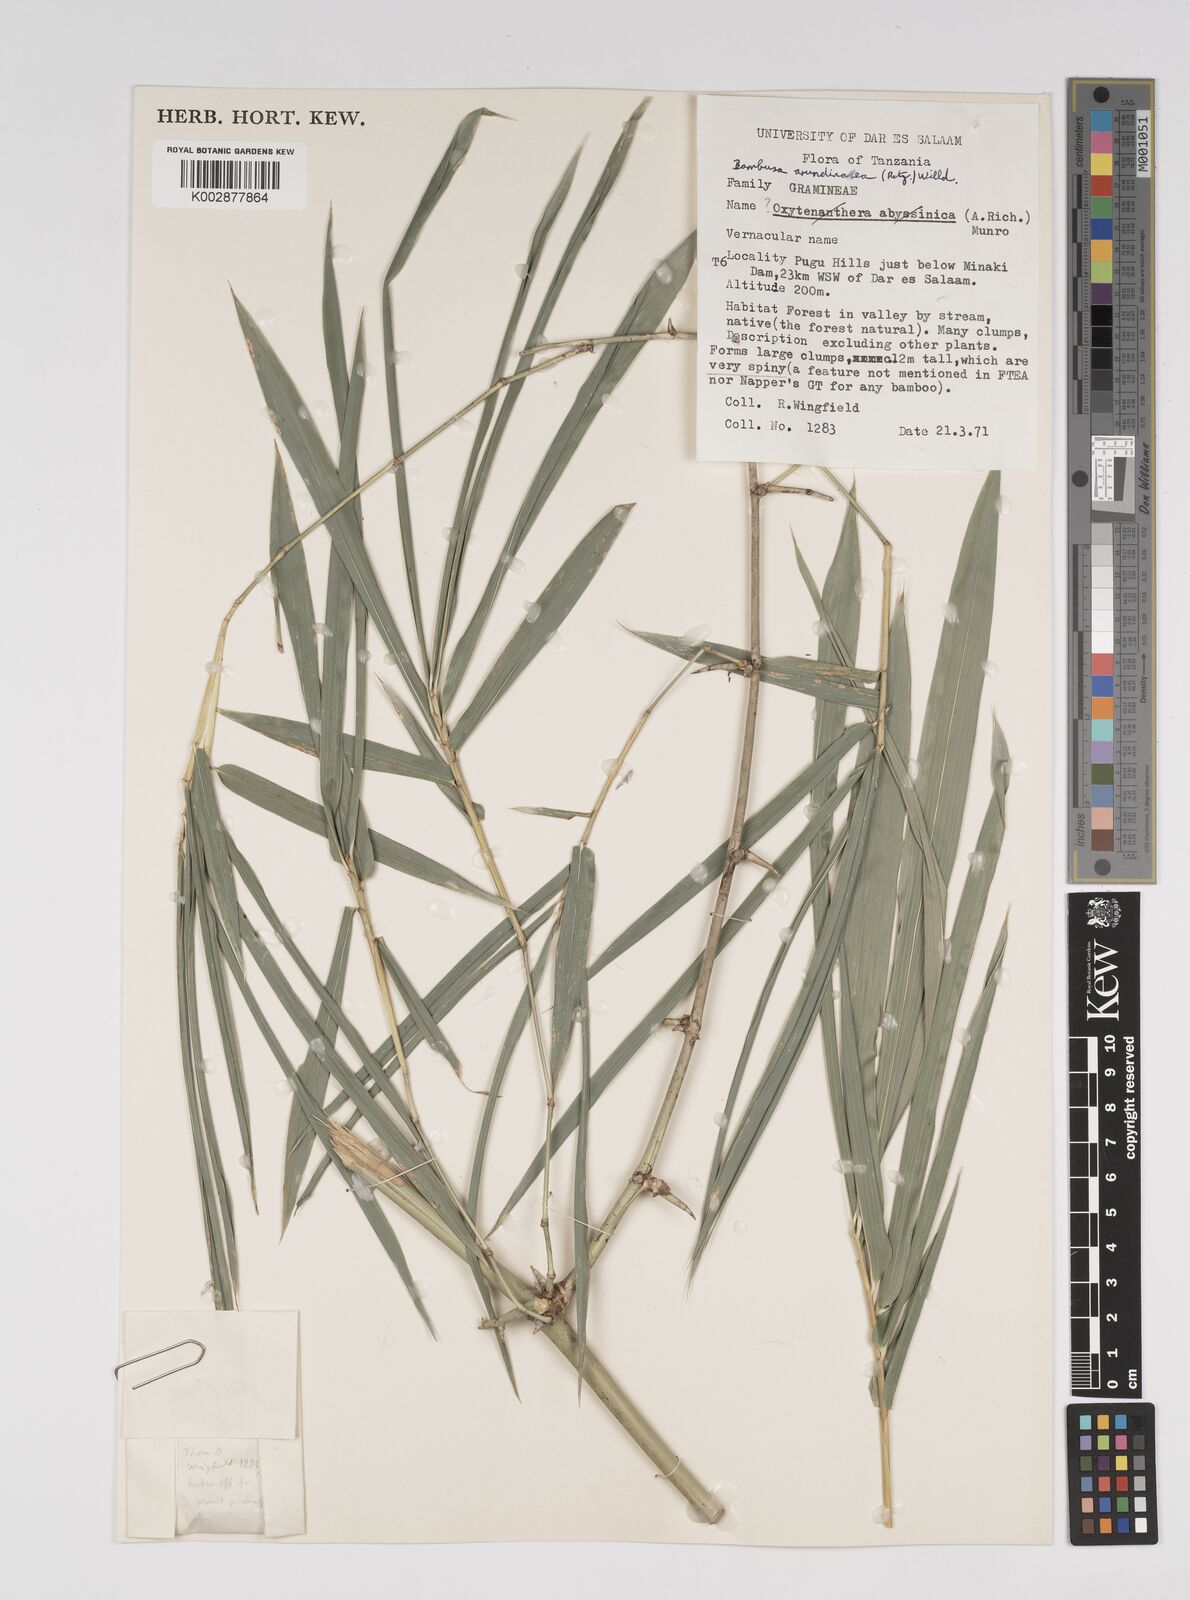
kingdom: Plantae
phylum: Tracheophyta
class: Liliopsida
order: Poales
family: Poaceae
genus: Bambusa
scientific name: Bambusa bambos
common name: Indian thorny bamboo
